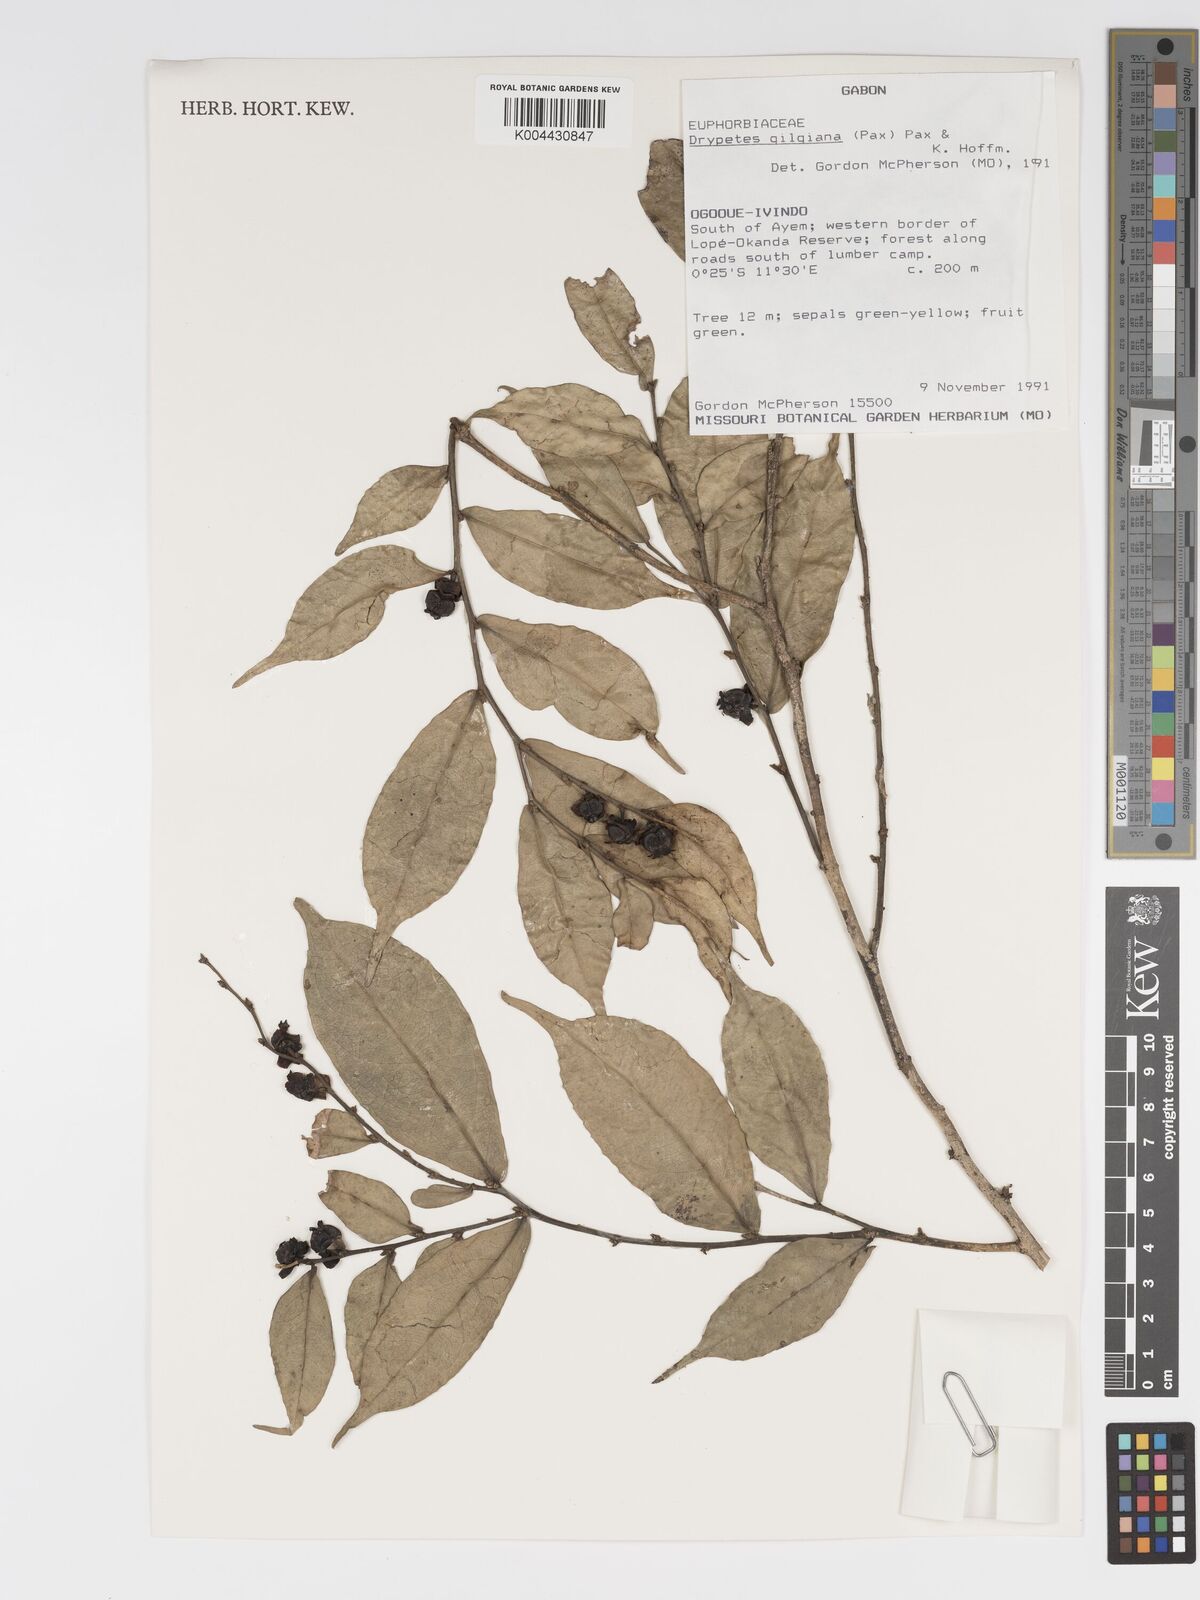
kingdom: Plantae
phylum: Tracheophyta
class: Magnoliopsida
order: Malpighiales
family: Putranjivaceae
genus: Drypetes
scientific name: Drypetes gilgiana
